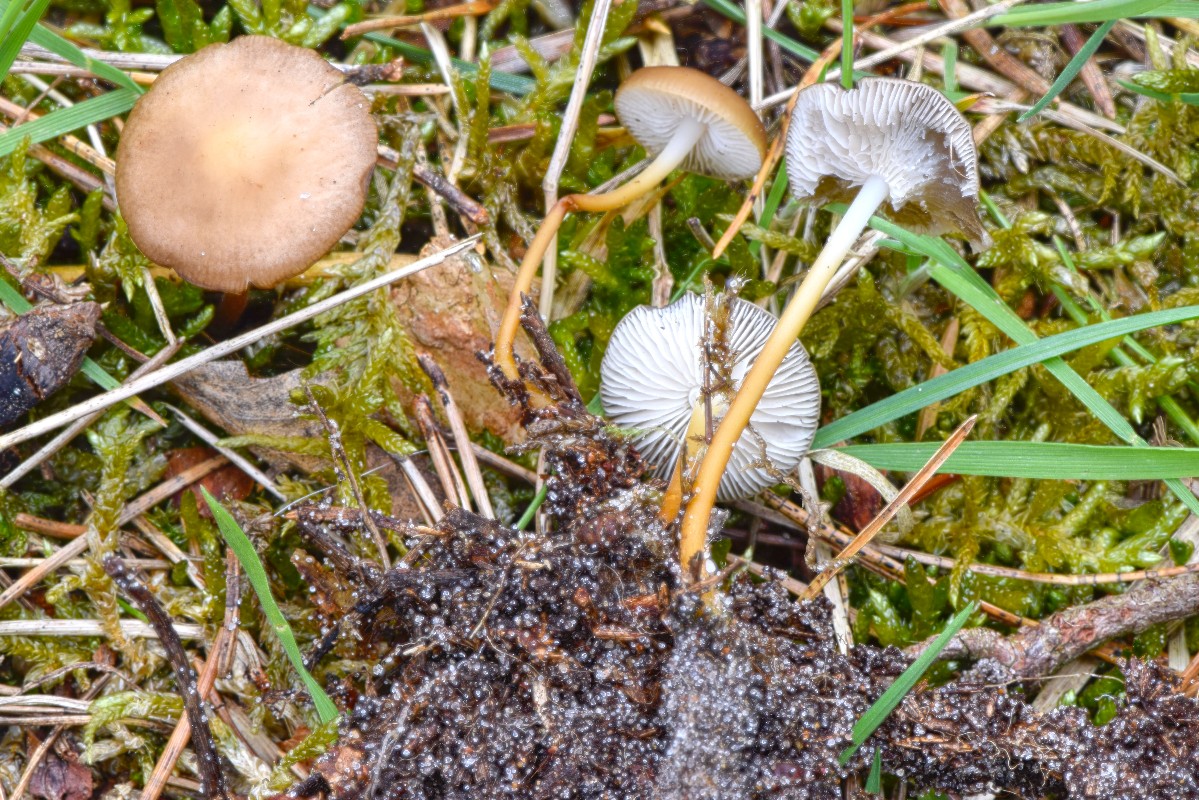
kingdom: Fungi
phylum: Basidiomycota
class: Agaricomycetes
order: Agaricales
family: Physalacriaceae
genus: Strobilurus
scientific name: Strobilurus tenacellus
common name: sommer-koglehat
